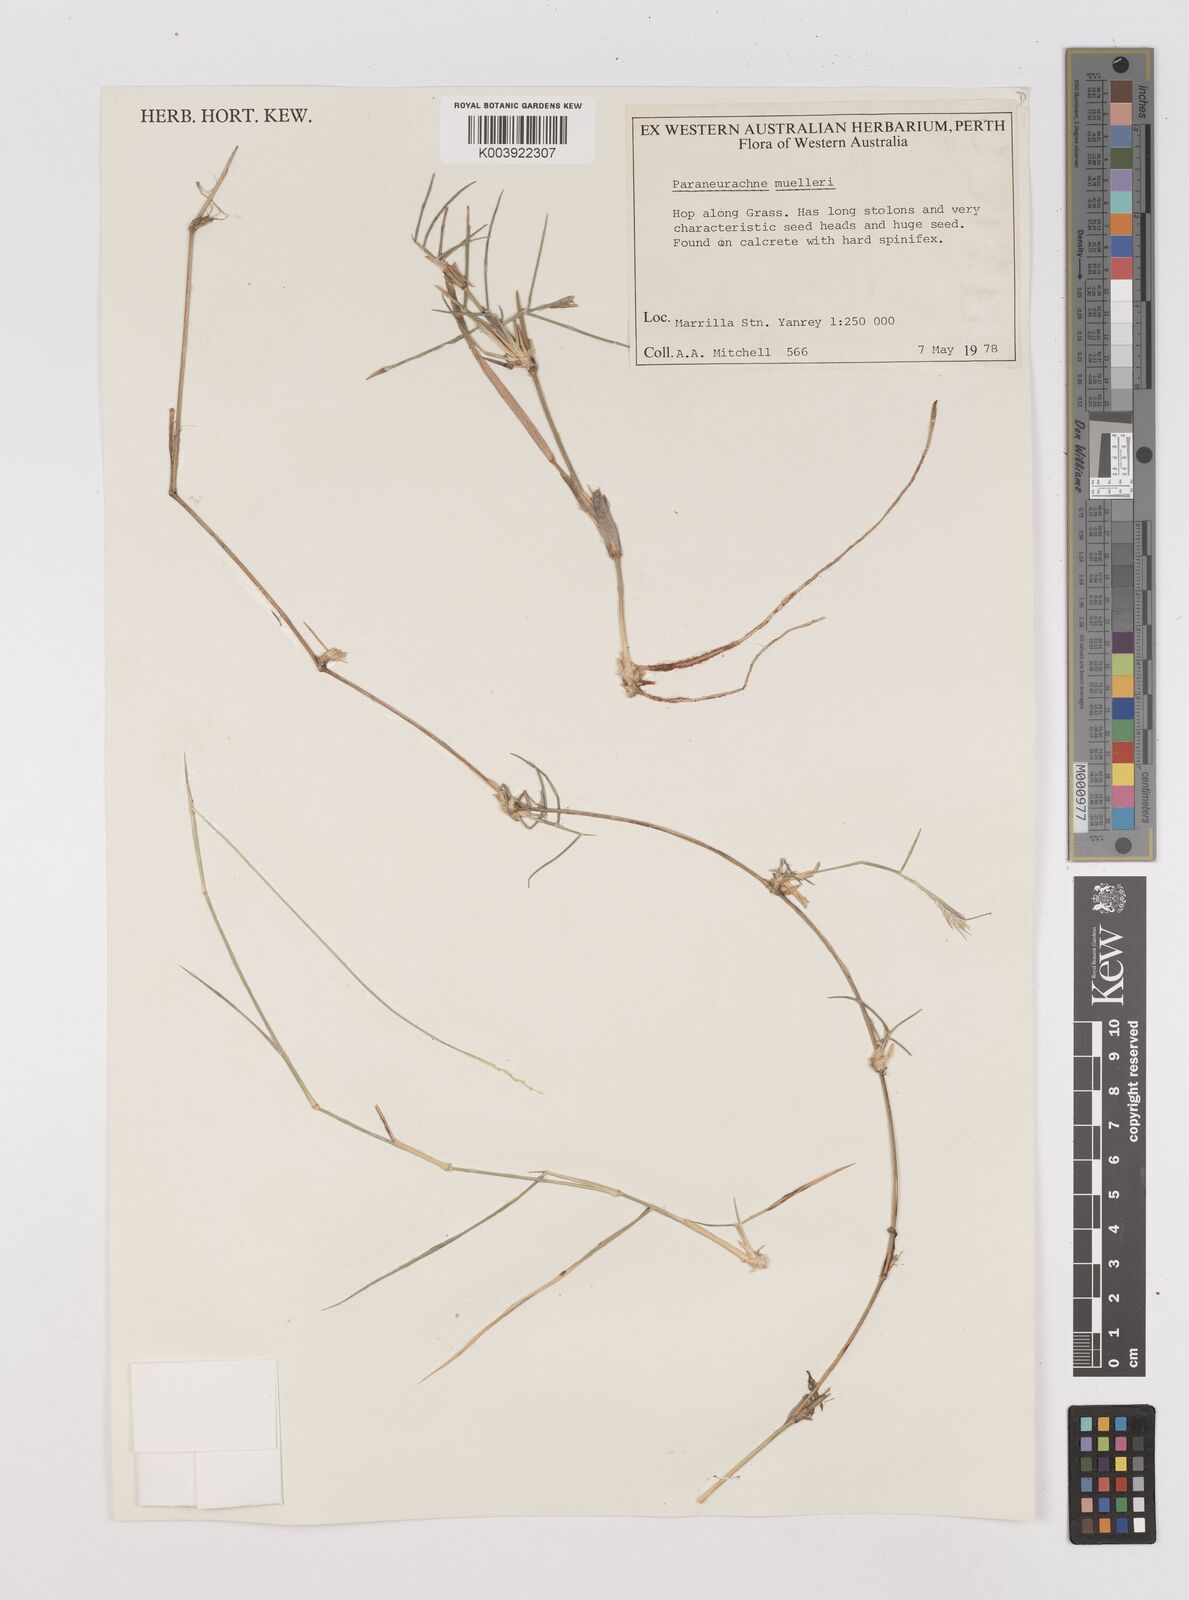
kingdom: Plantae
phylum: Tracheophyta
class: Liliopsida
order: Poales
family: Poaceae
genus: Neurachne
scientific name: Neurachne muelleri
